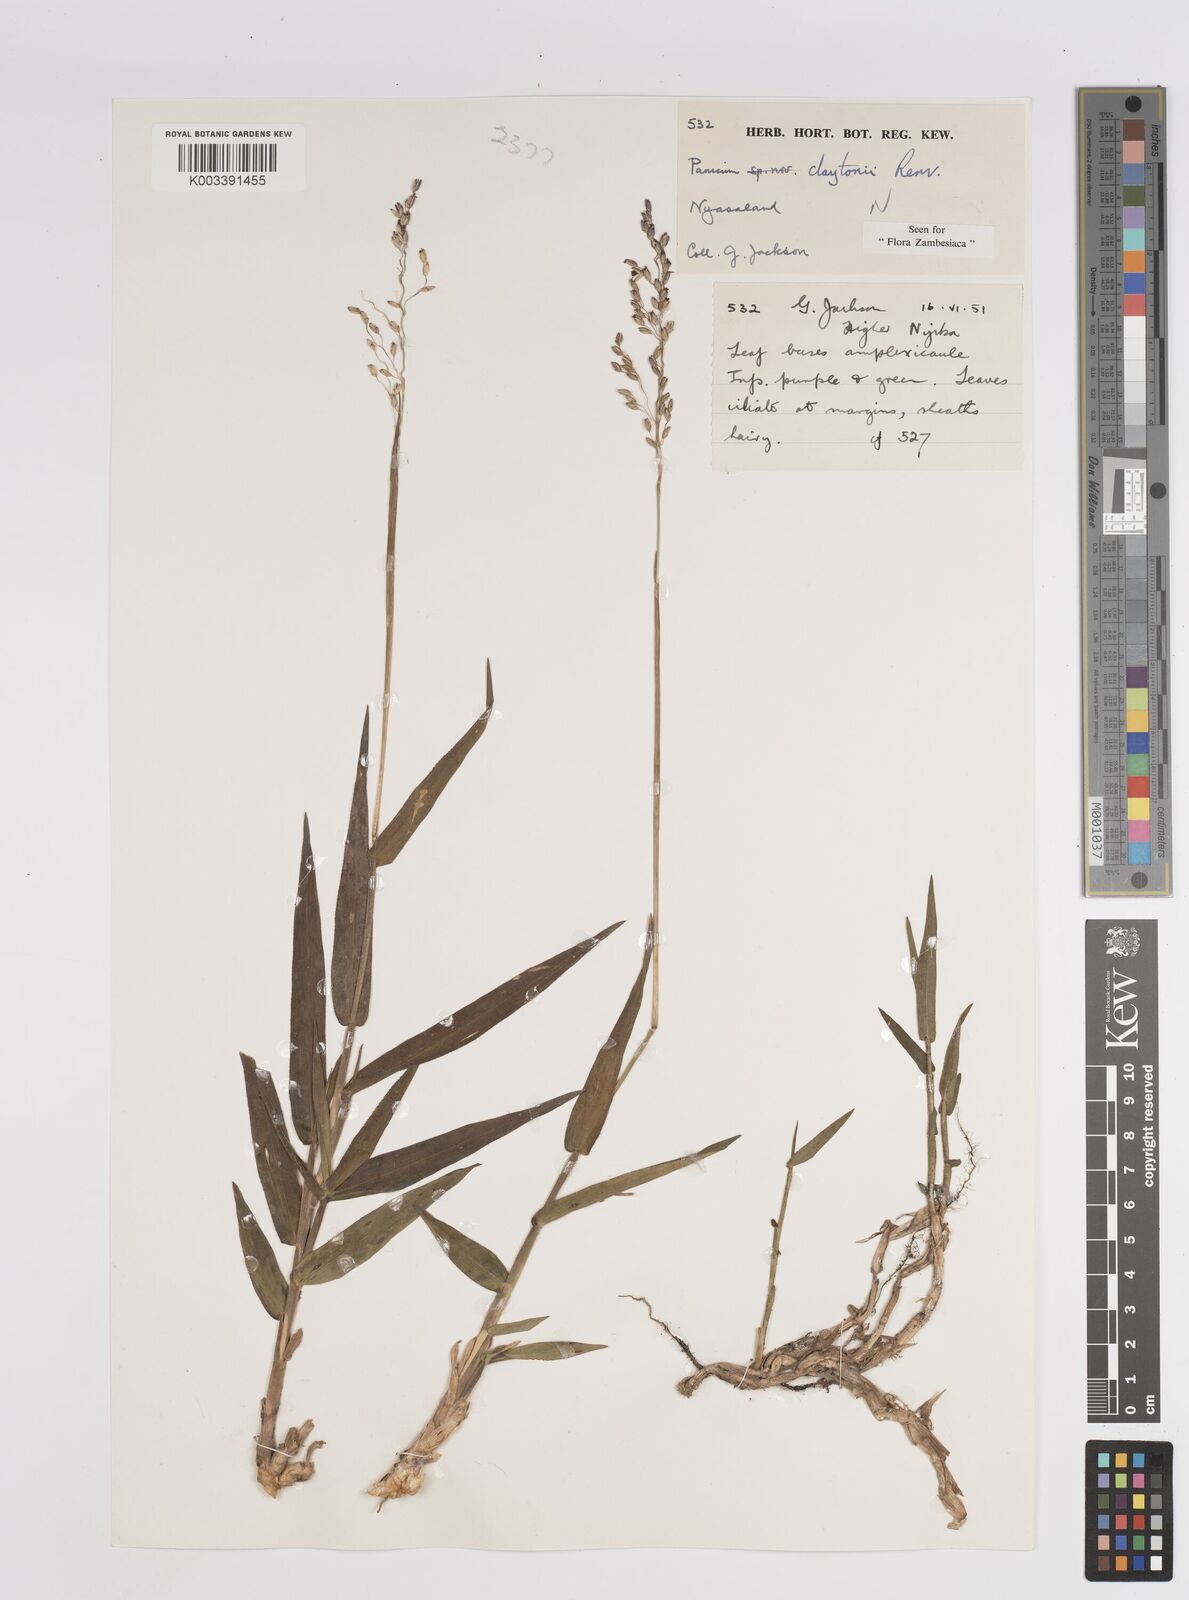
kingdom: Plantae
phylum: Tracheophyta
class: Liliopsida
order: Poales
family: Poaceae
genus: Adenochloa
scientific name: Adenochloa claytonii
